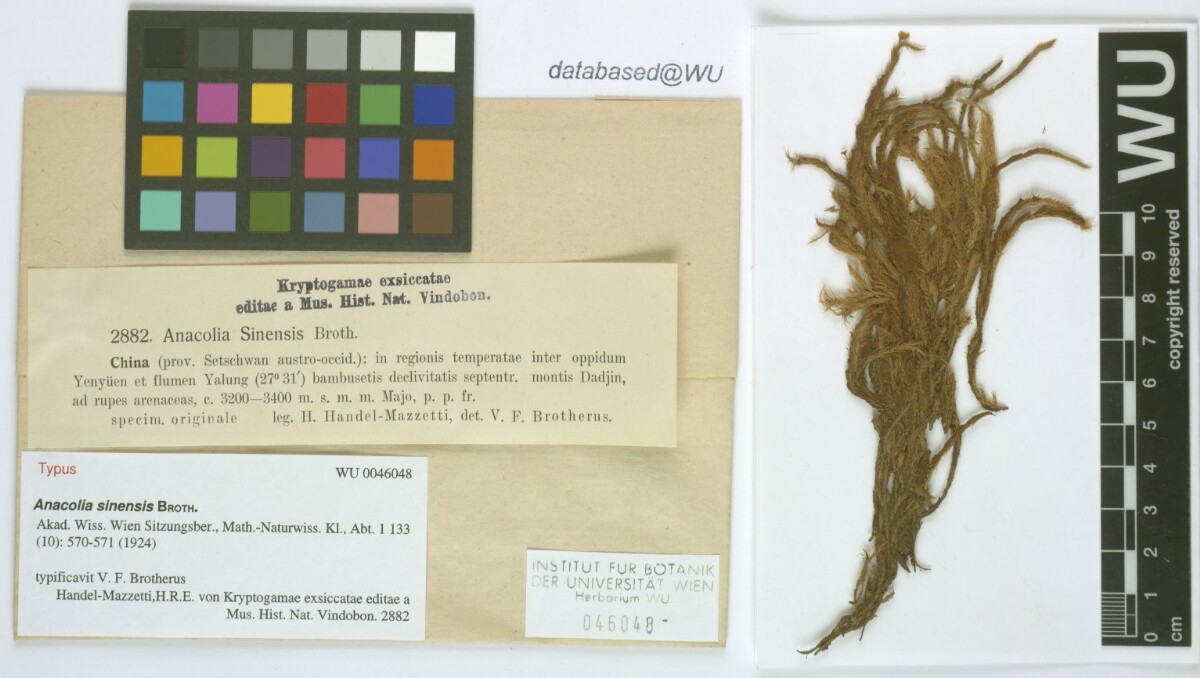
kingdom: Plantae
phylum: Bryophyta
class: Bryopsida
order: Bartramiales
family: Bartramiaceae
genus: Flowersia
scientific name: Flowersia sinensis
